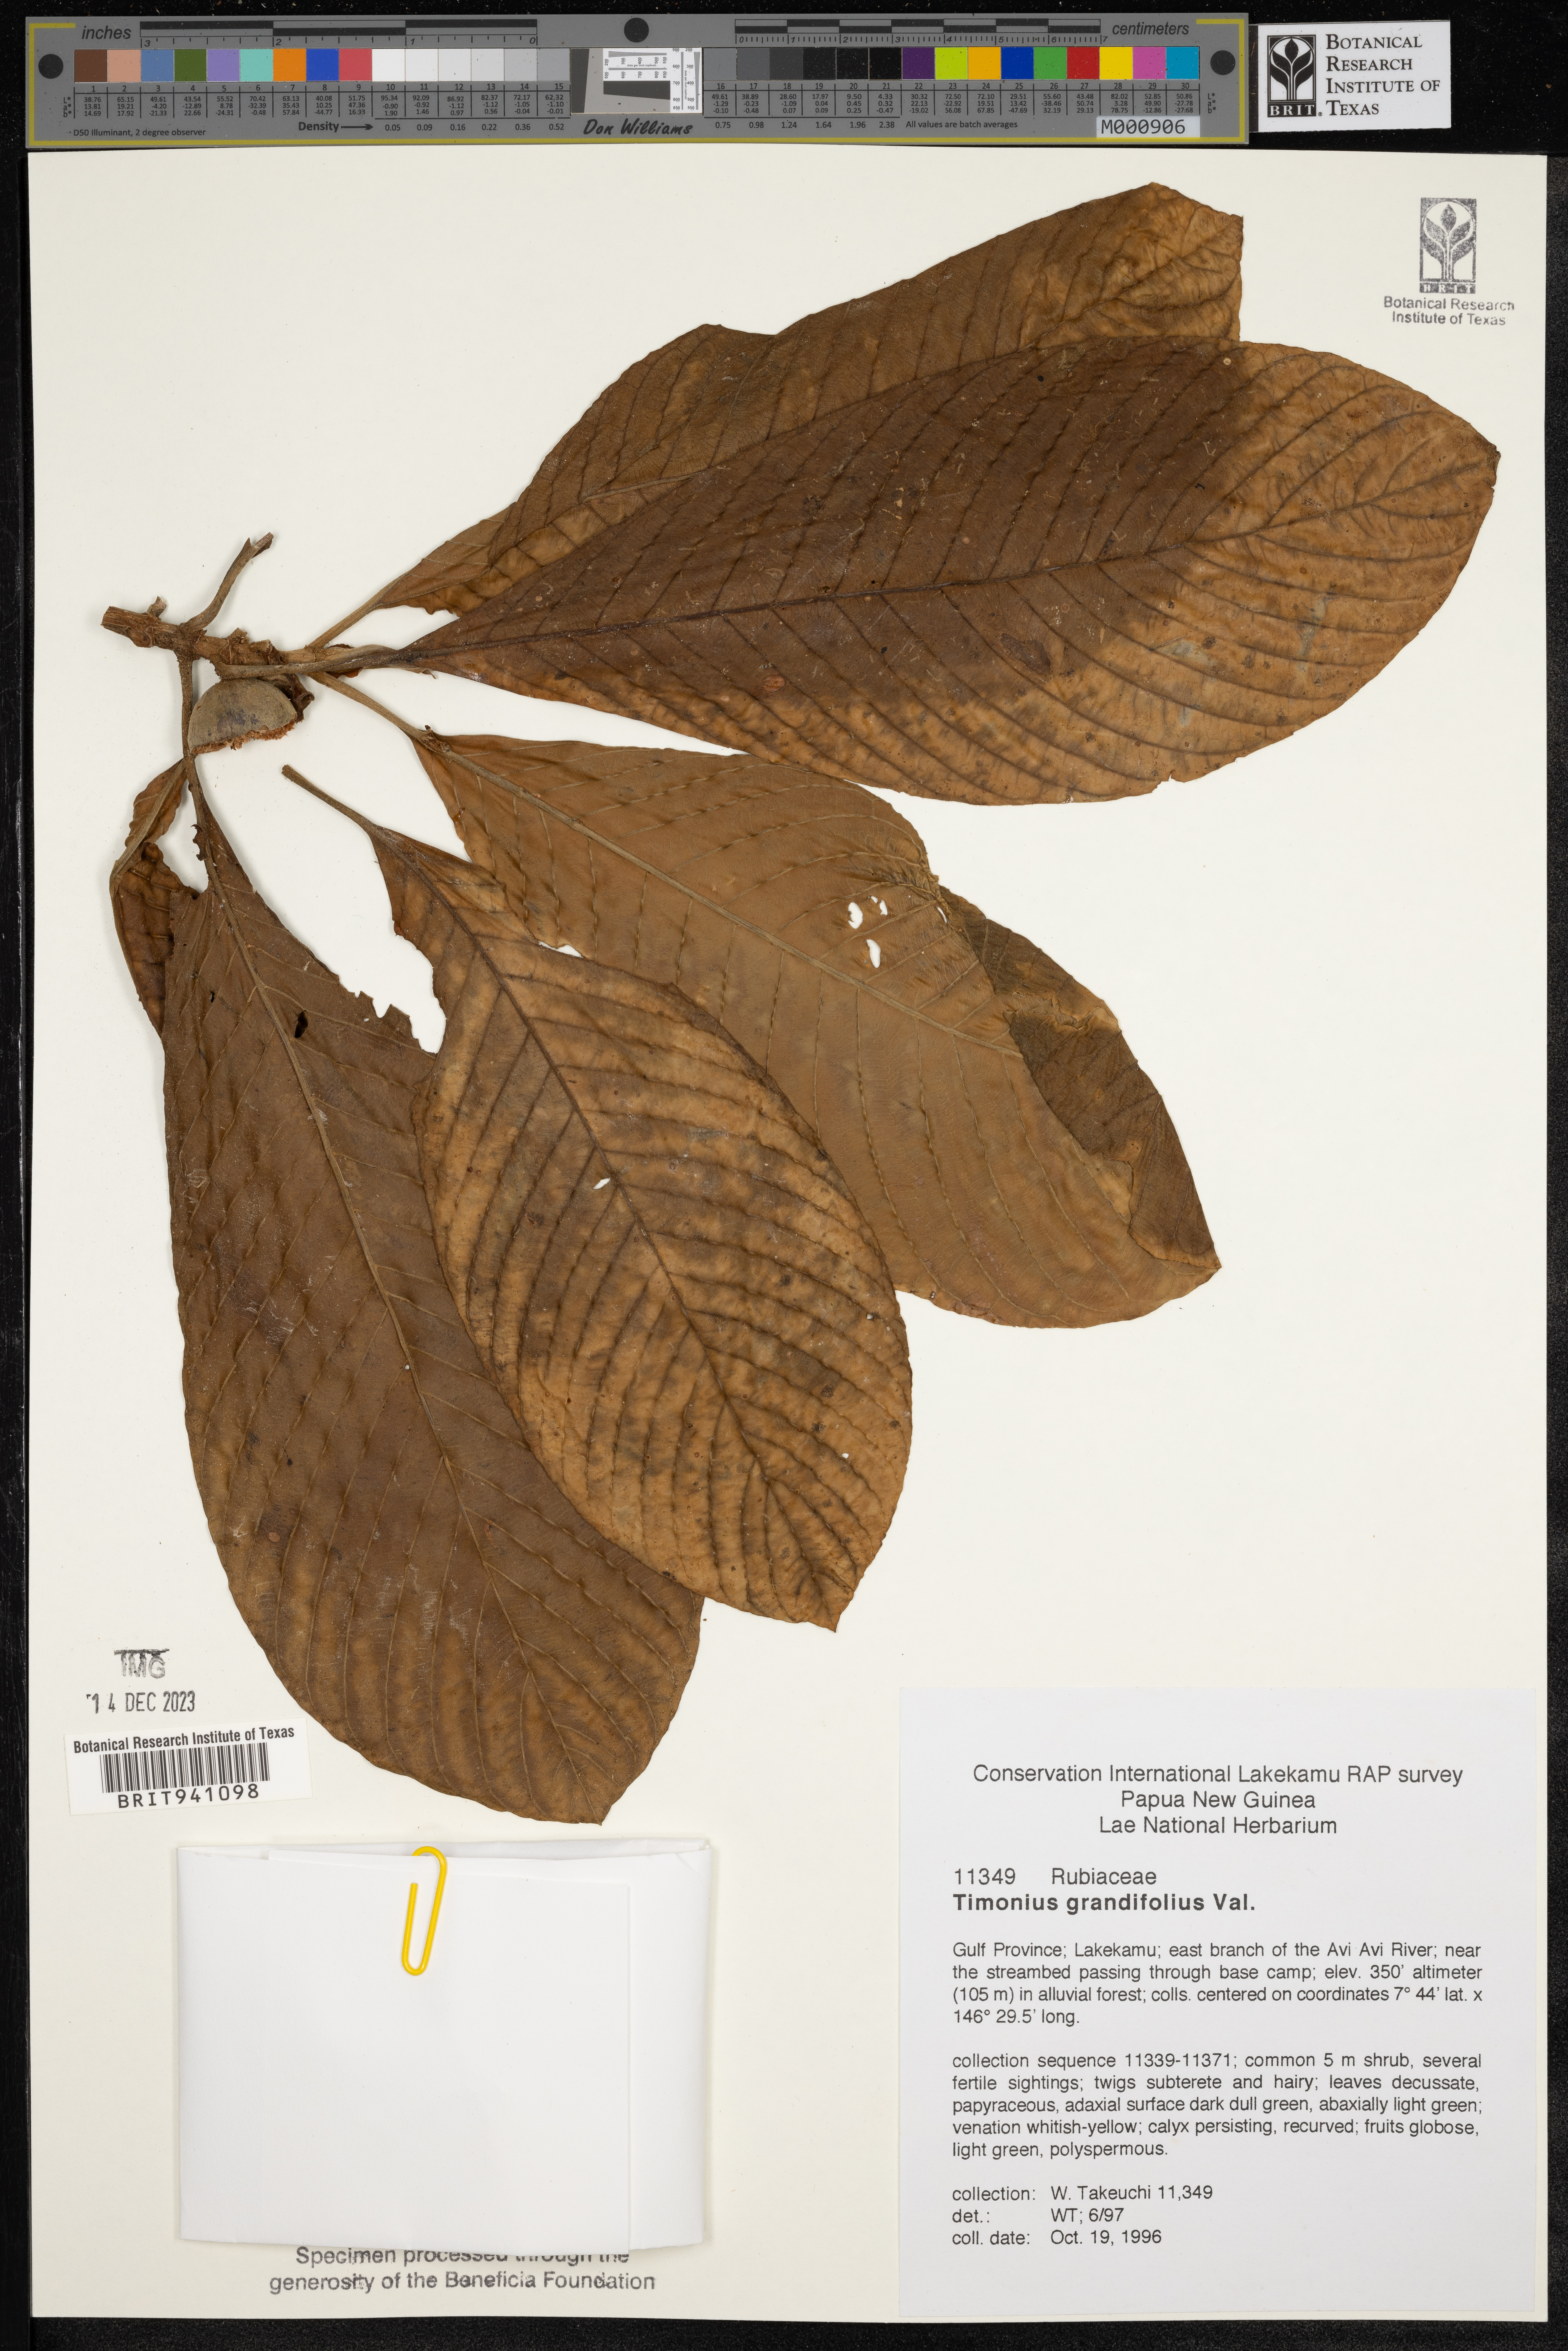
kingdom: Plantae
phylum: Tracheophyta
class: Magnoliopsida
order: Gentianales
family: Rubiaceae
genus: Timonius
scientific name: Timonius
